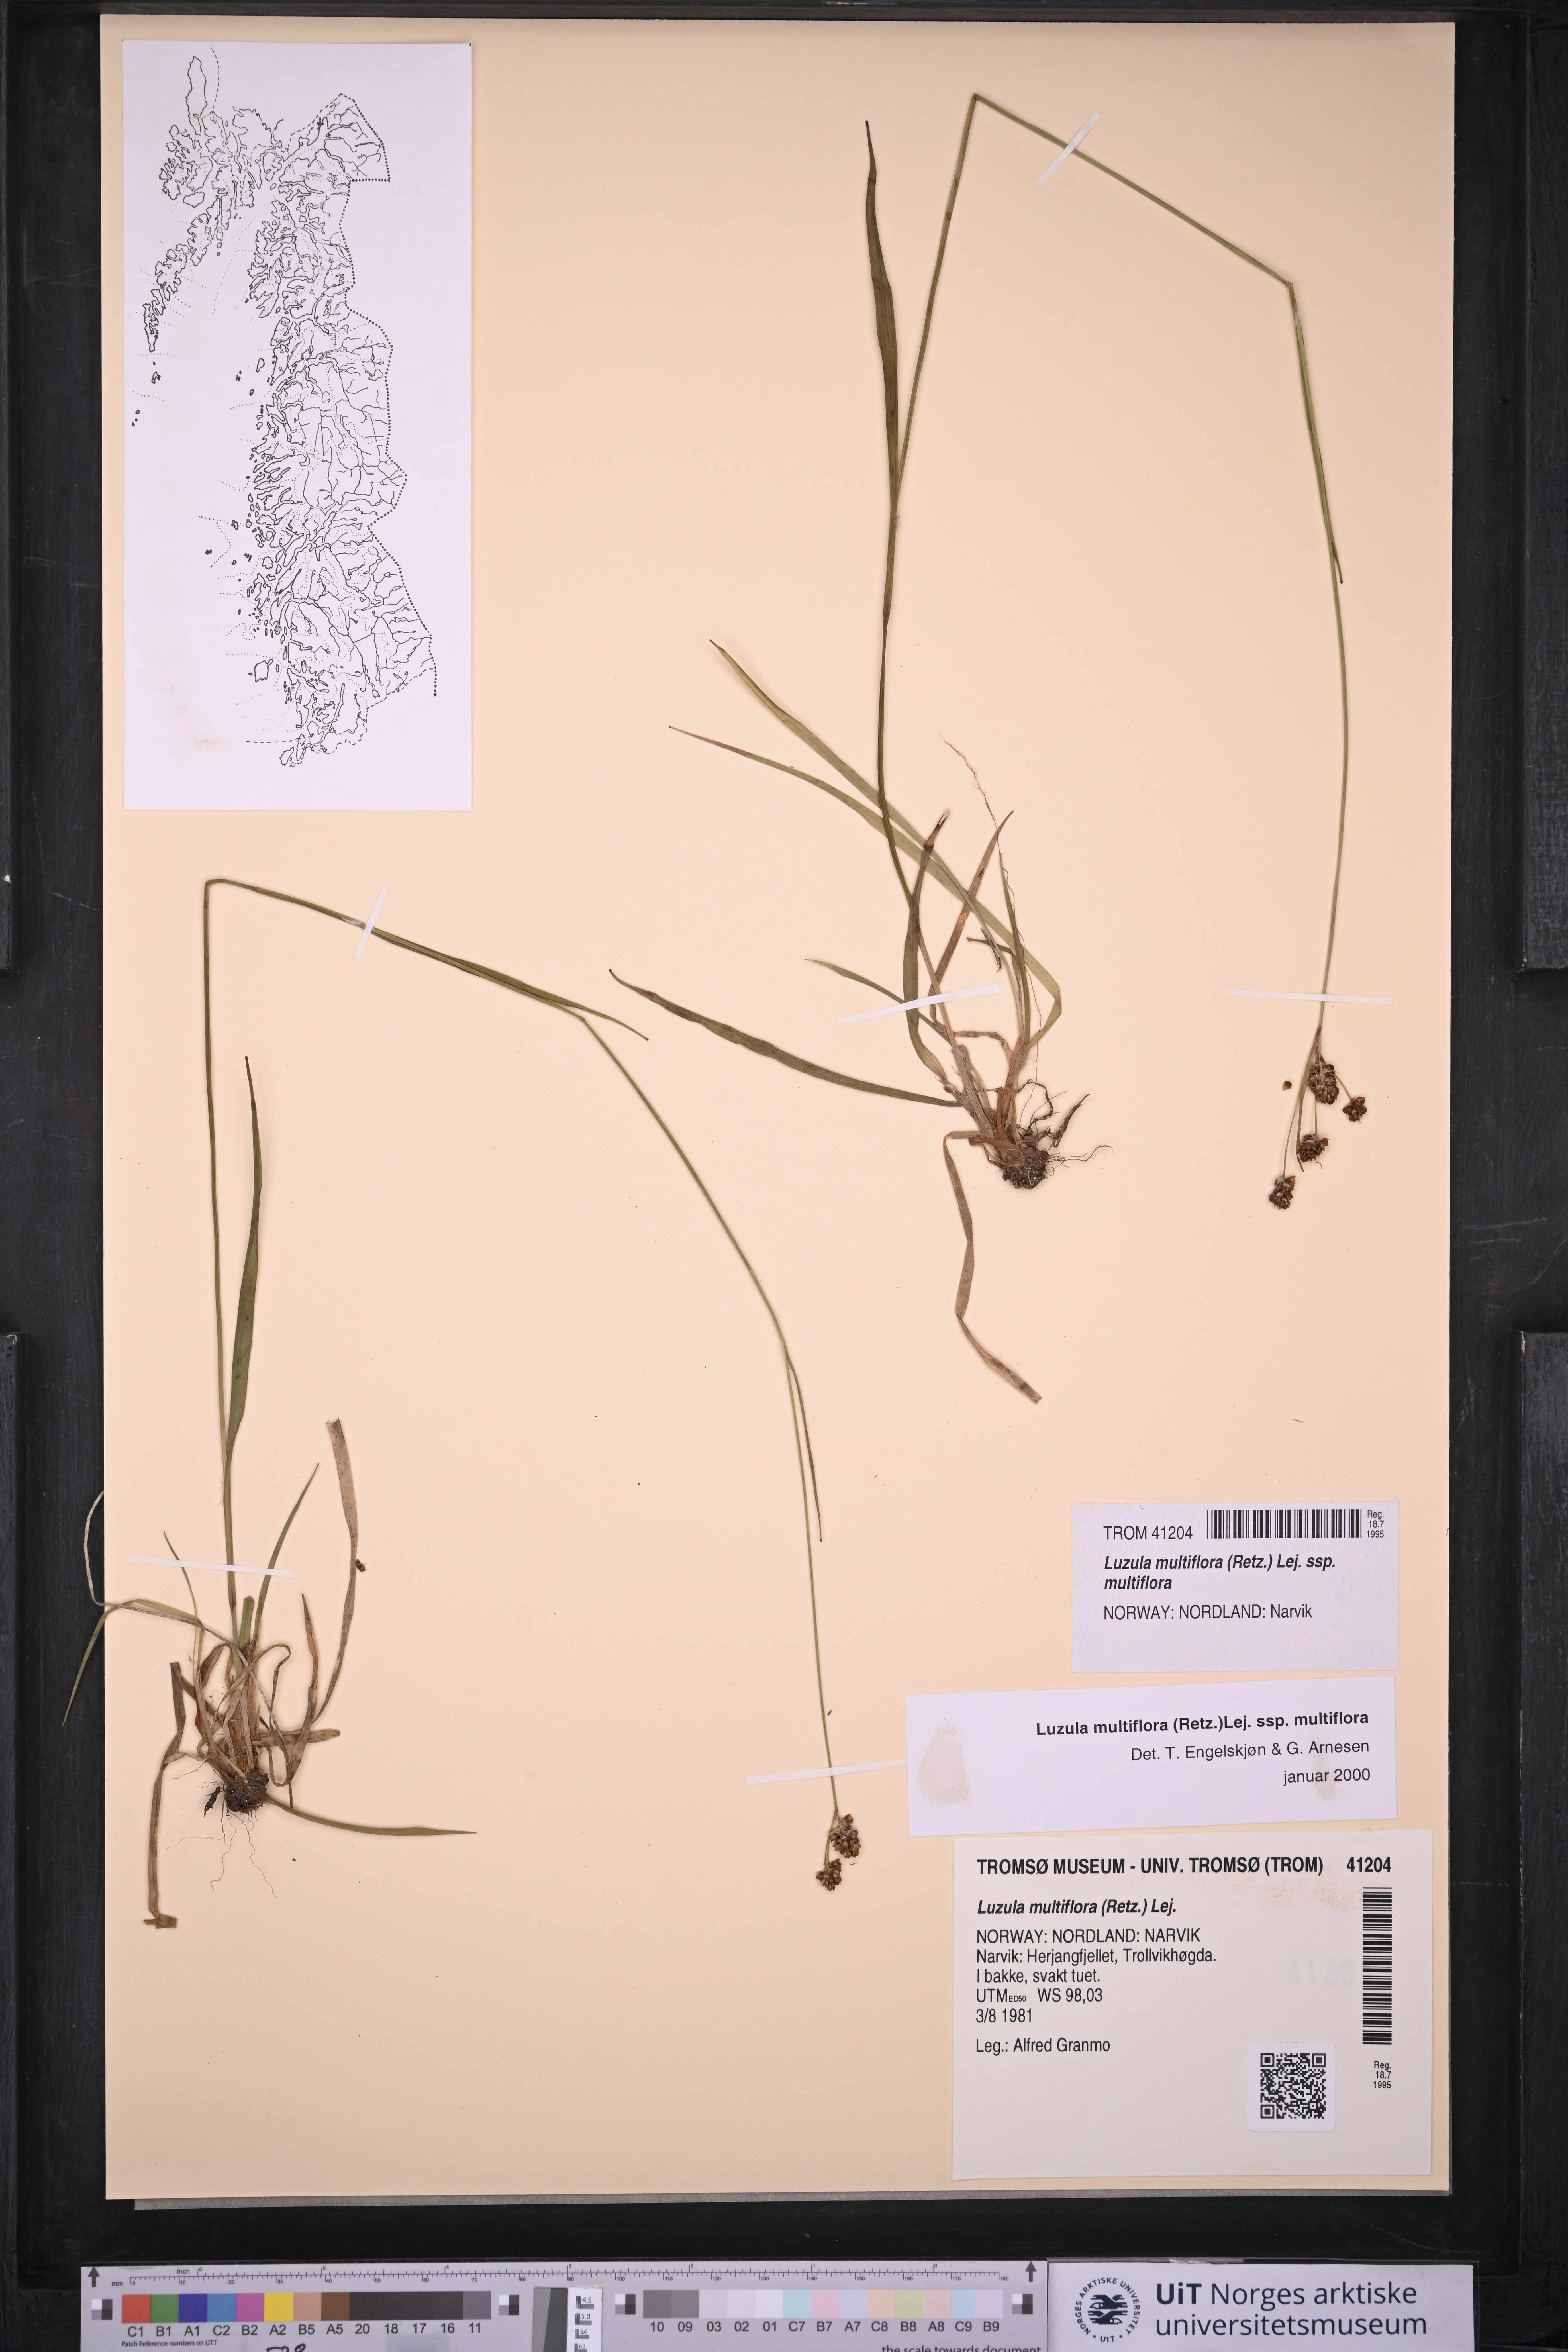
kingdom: Plantae
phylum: Tracheophyta
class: Liliopsida
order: Poales
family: Juncaceae
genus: Luzula
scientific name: Luzula multiflora
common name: Heath wood-rush
